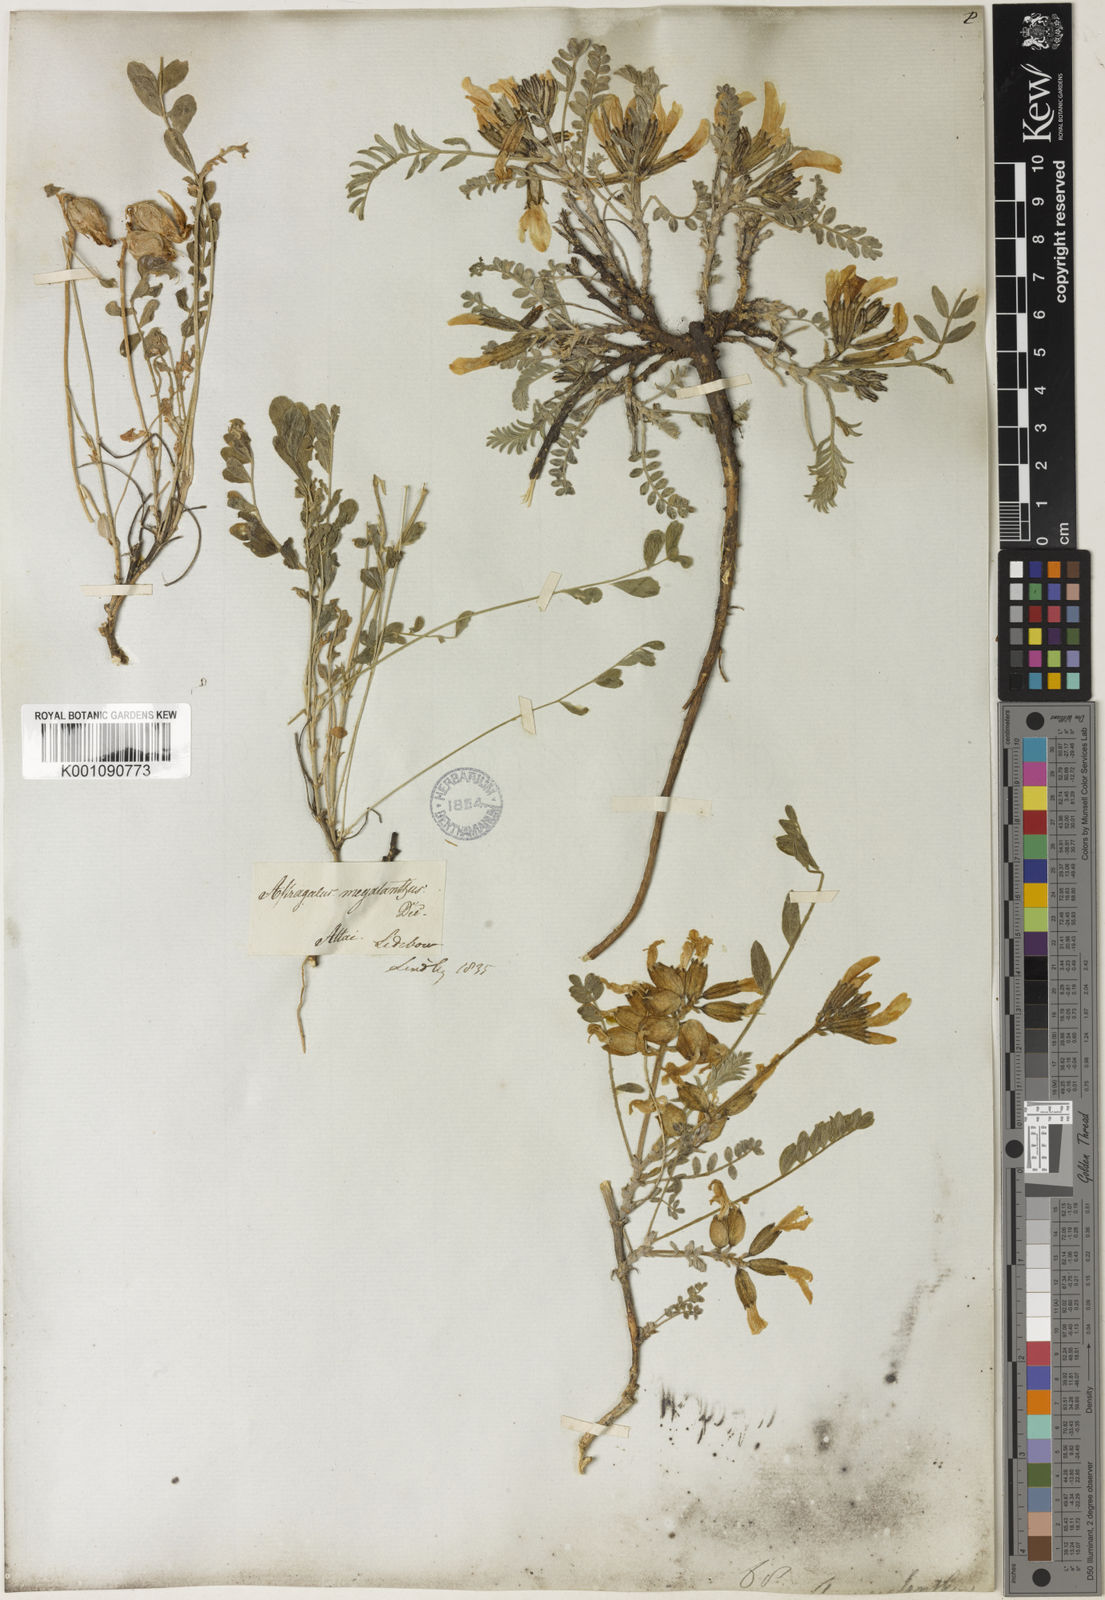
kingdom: Plantae
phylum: Tracheophyta
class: Magnoliopsida
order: Fabales
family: Fabaceae
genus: Astragalus
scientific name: Astragalus
